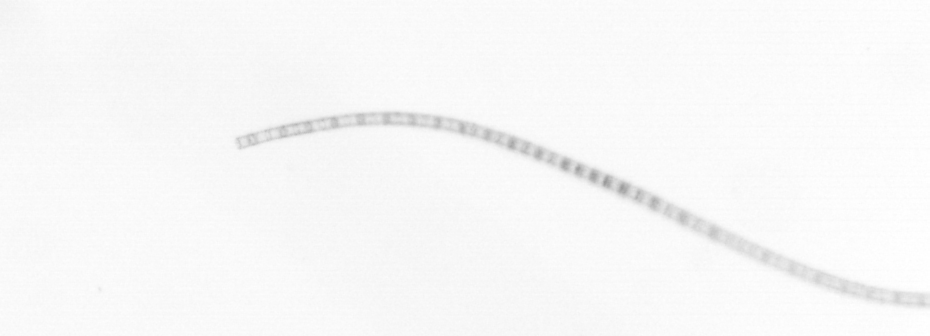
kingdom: Chromista
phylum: Ochrophyta
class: Bacillariophyceae
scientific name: Bacillariophyceae
